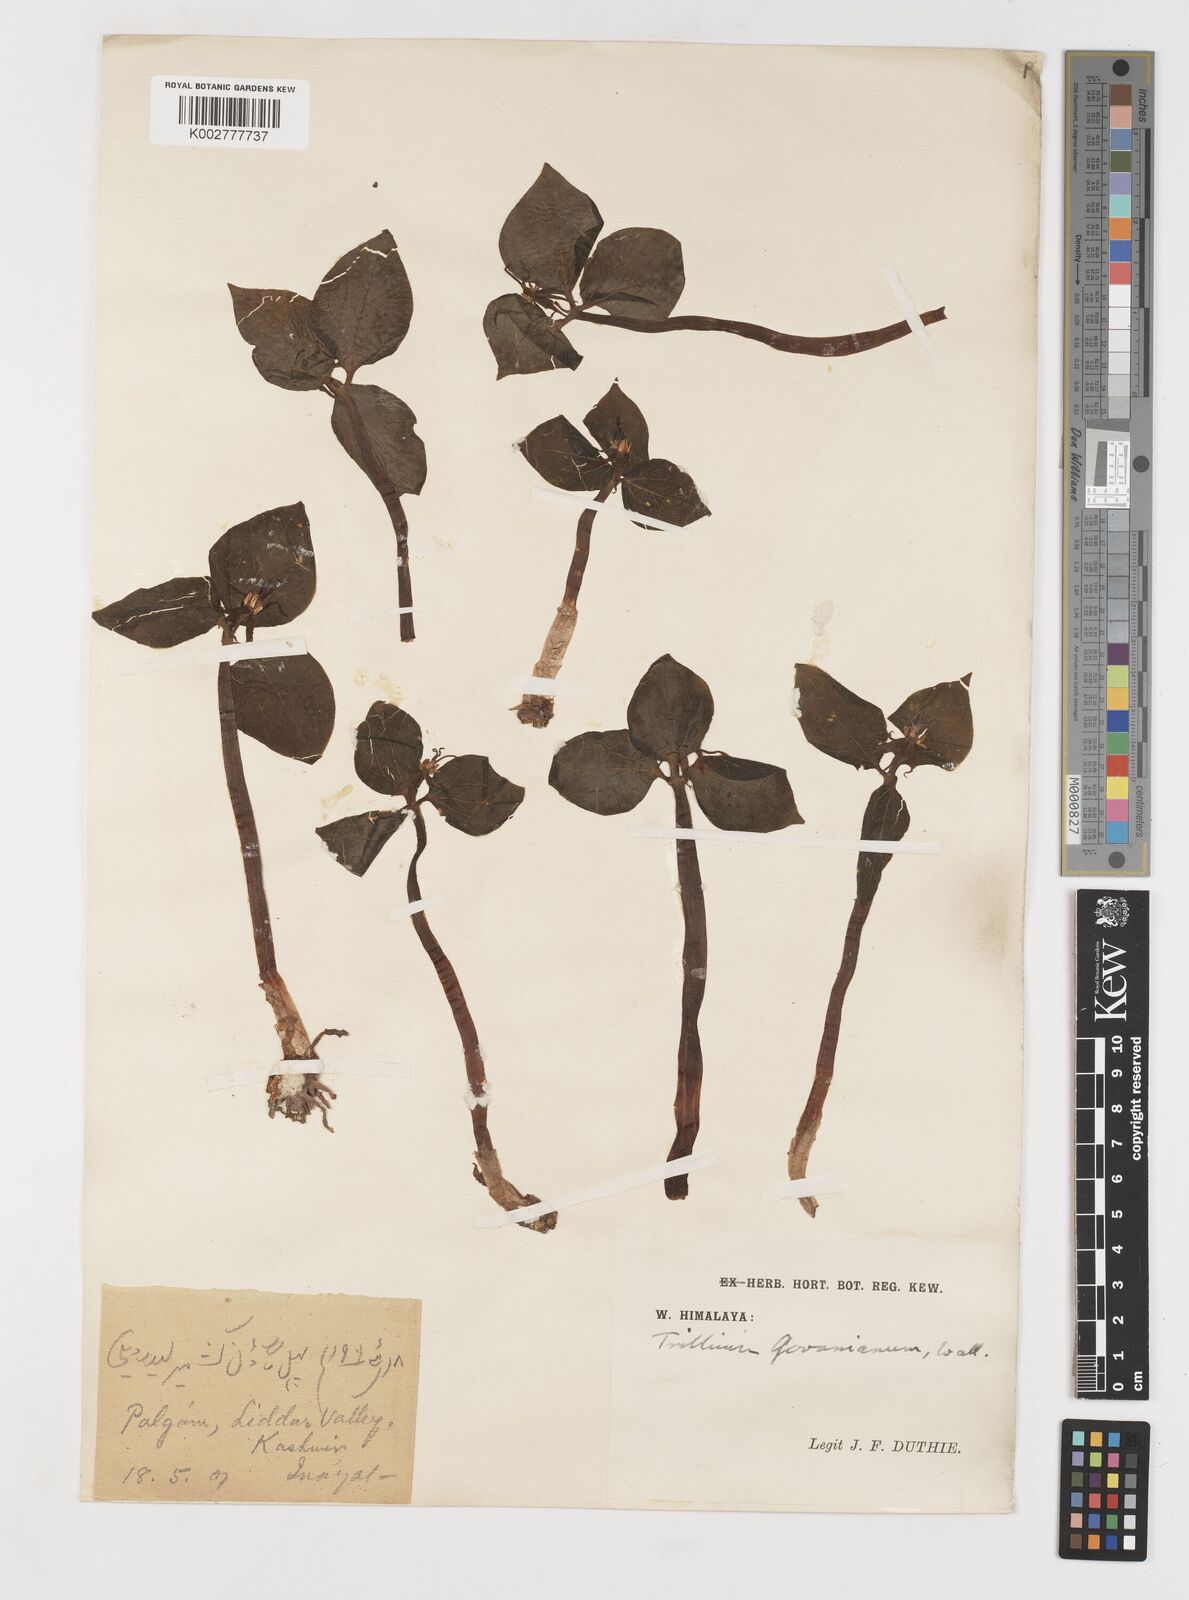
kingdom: Plantae
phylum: Tracheophyta
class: Liliopsida
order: Liliales
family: Melanthiaceae
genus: Trillium
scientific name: Trillium govanianum
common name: Himalayan trillium
